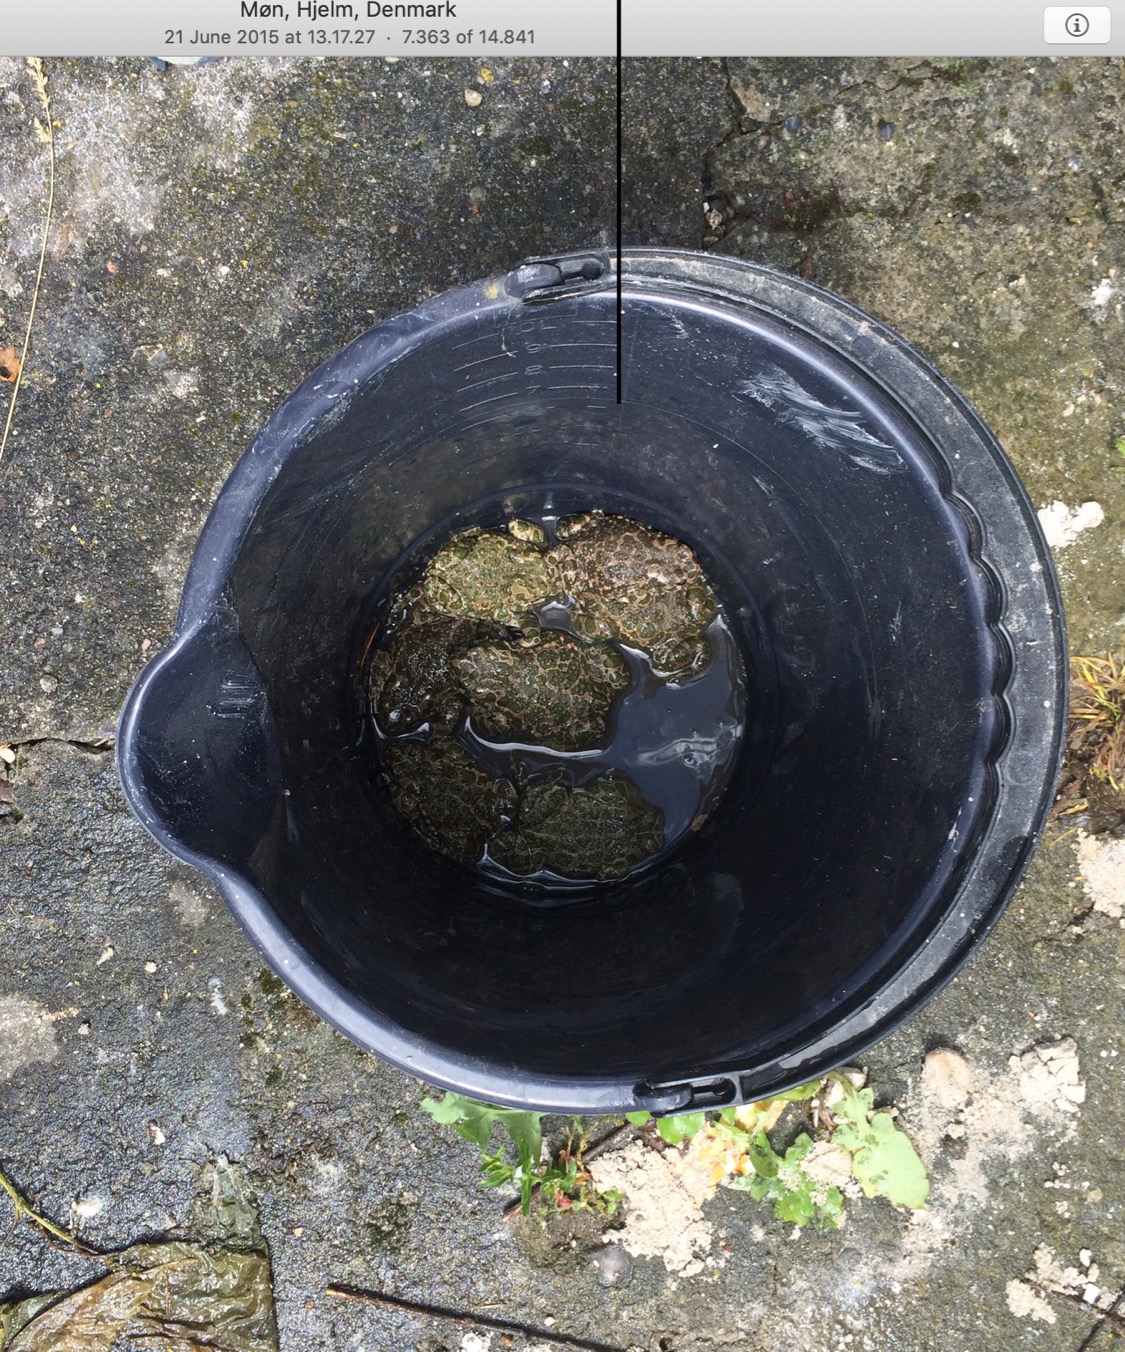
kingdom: Animalia
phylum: Chordata
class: Amphibia
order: Anura
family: Bufonidae
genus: Bufotes
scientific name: Bufotes viridis
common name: Grønbroget tudse
